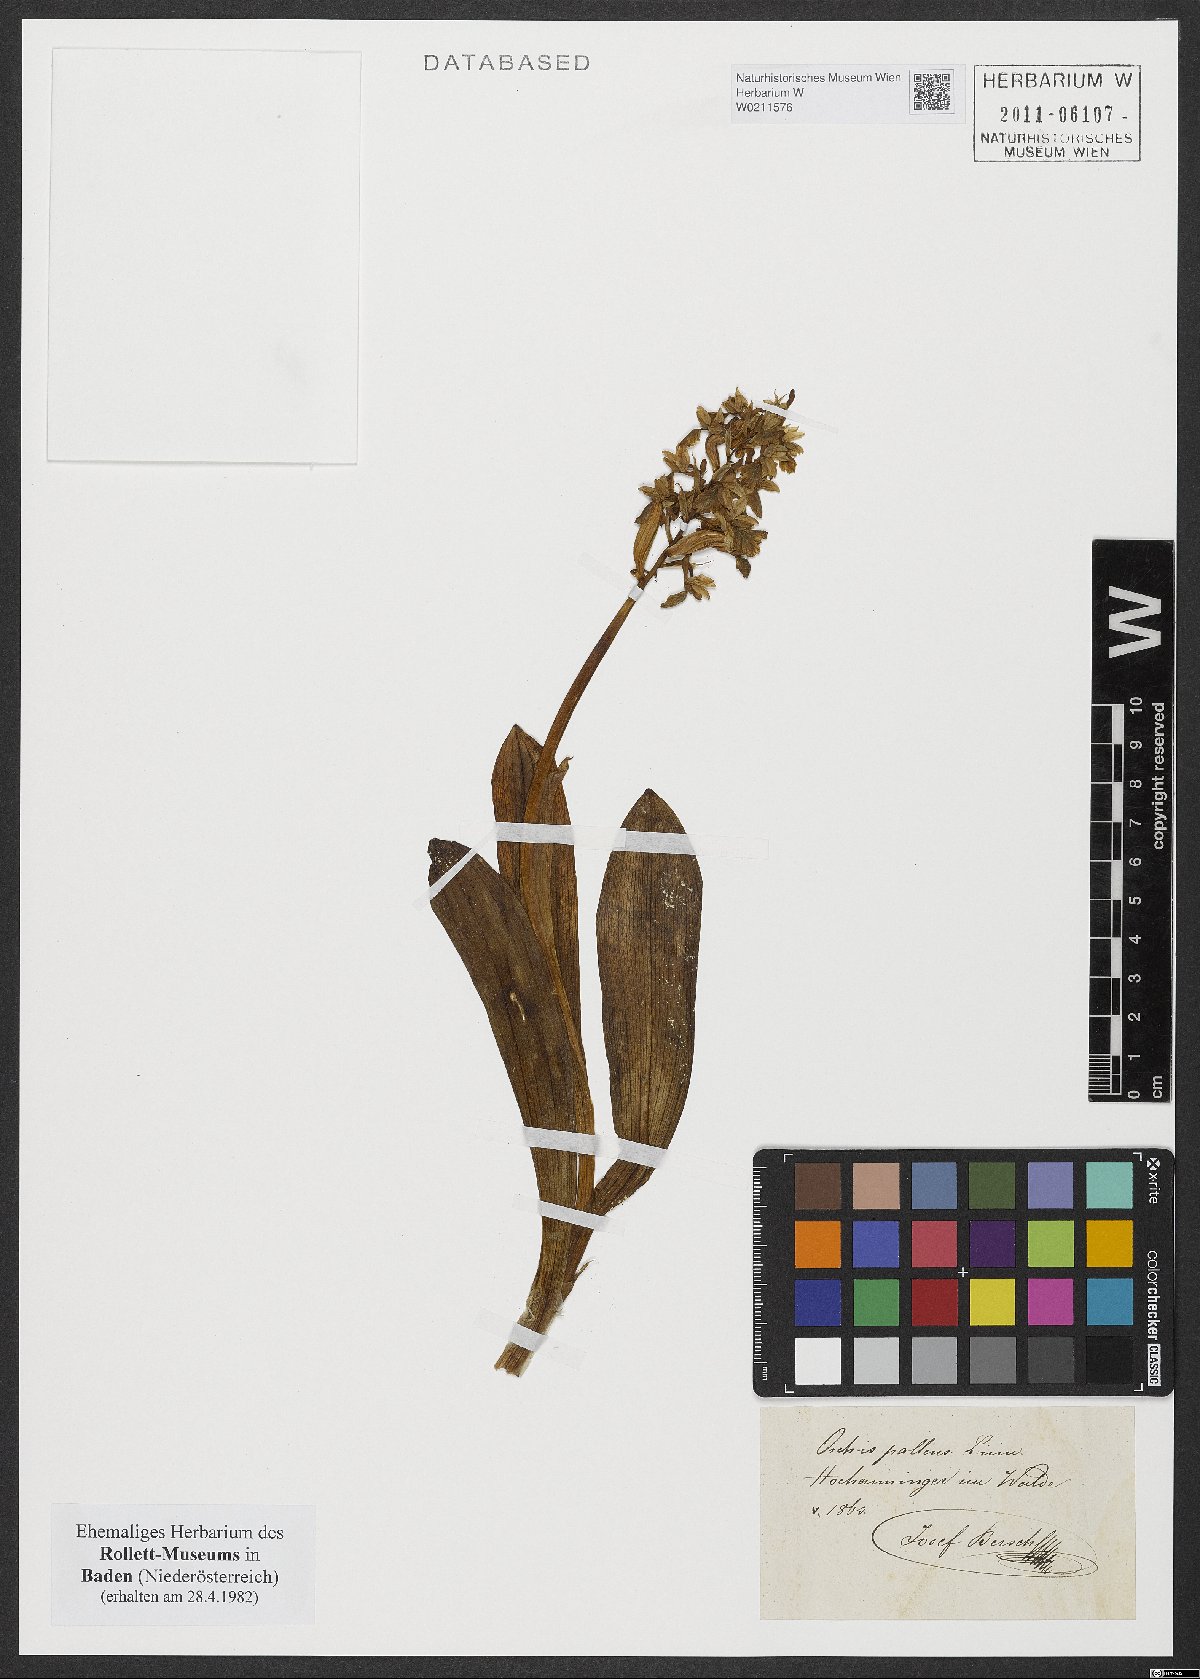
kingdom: Plantae
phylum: Tracheophyta
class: Liliopsida
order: Asparagales
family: Orchidaceae
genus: Orchis
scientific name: Orchis pallens
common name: Pale-flowered orchid
